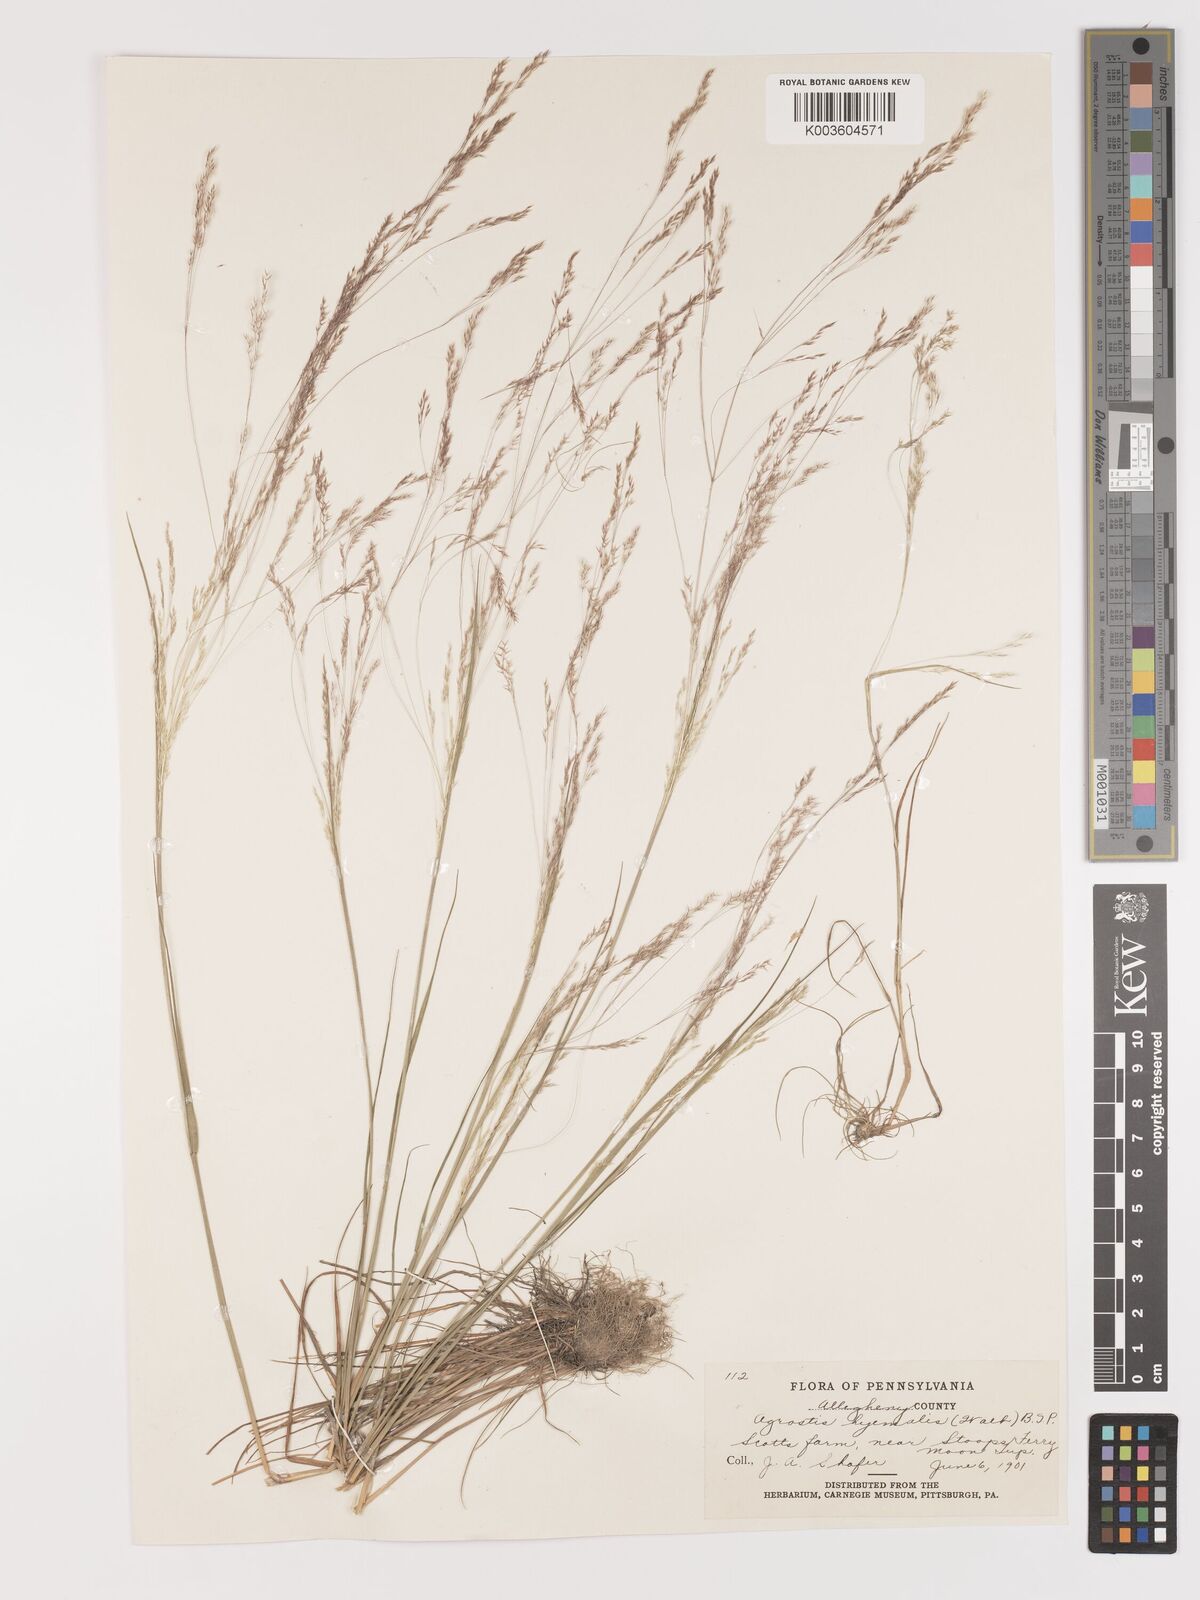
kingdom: Plantae
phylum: Tracheophyta
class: Liliopsida
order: Poales
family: Poaceae
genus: Agrostis
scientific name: Agrostis hyemalis
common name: Small bent
